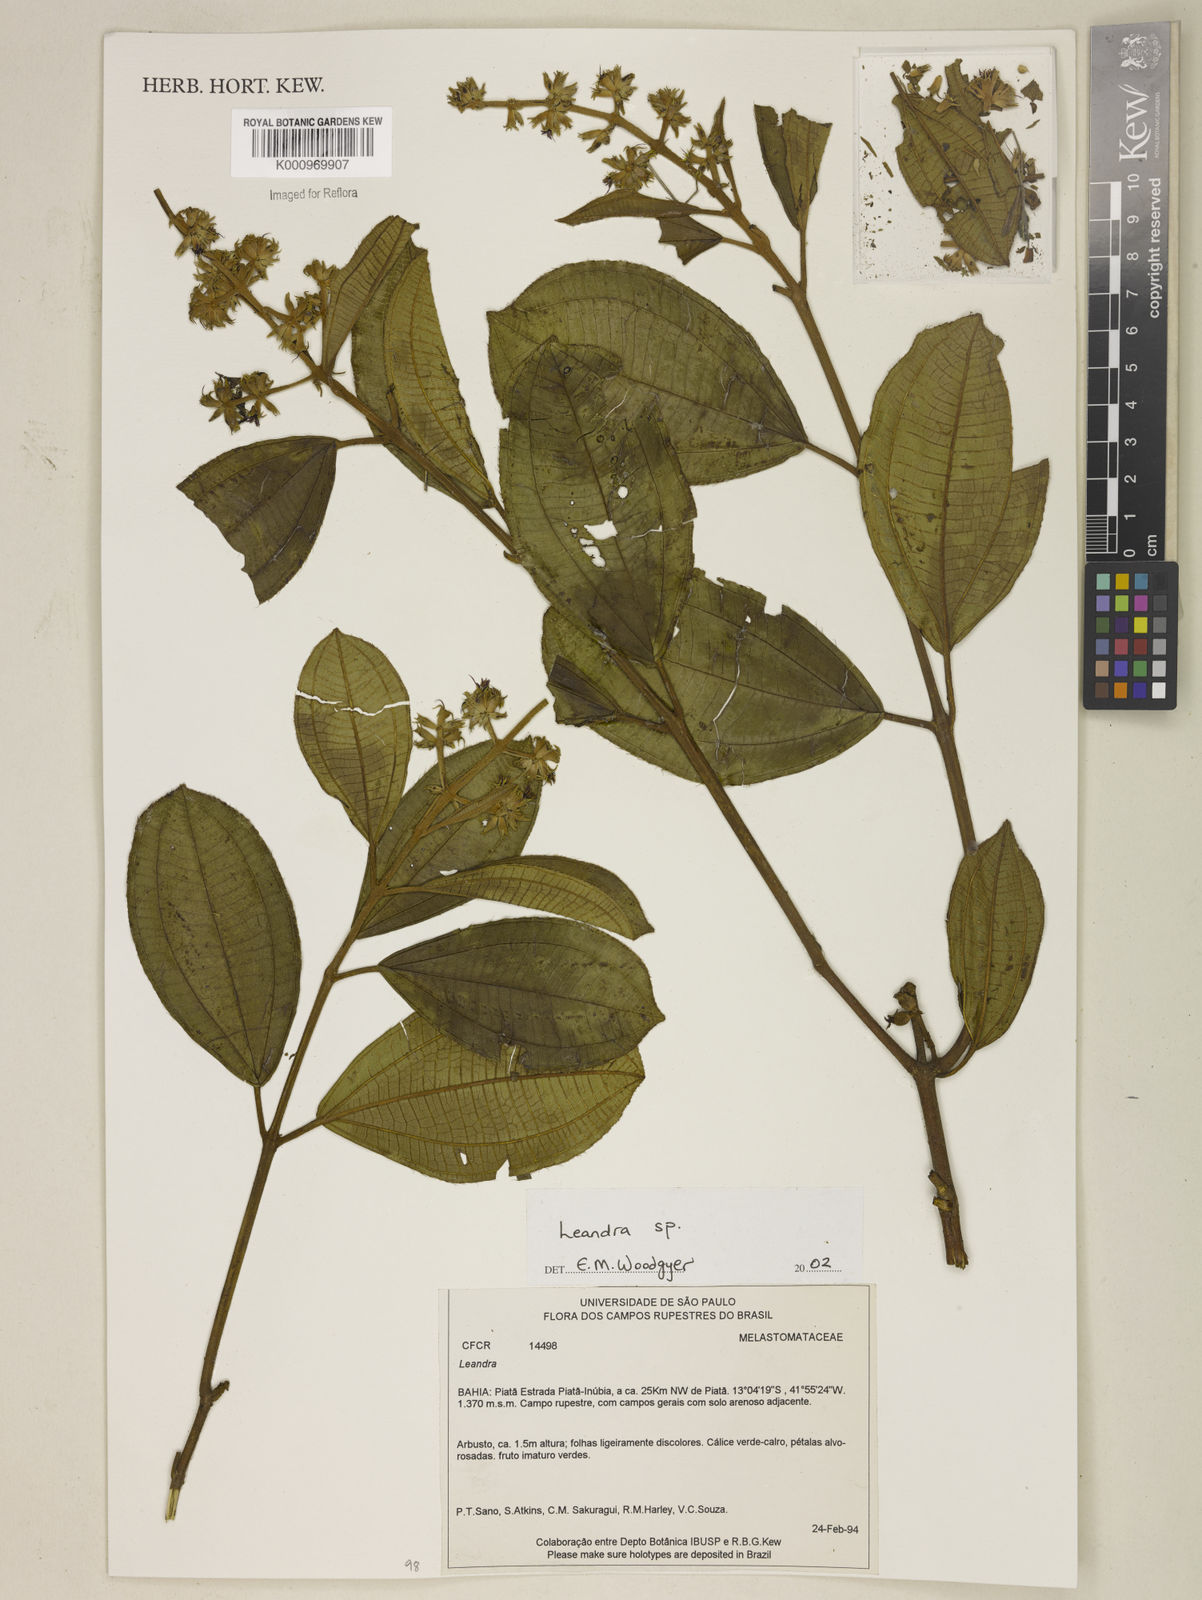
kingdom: Plantae
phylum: Tracheophyta
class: Magnoliopsida
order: Myrtales
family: Melastomataceae
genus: Miconia
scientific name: Miconia
